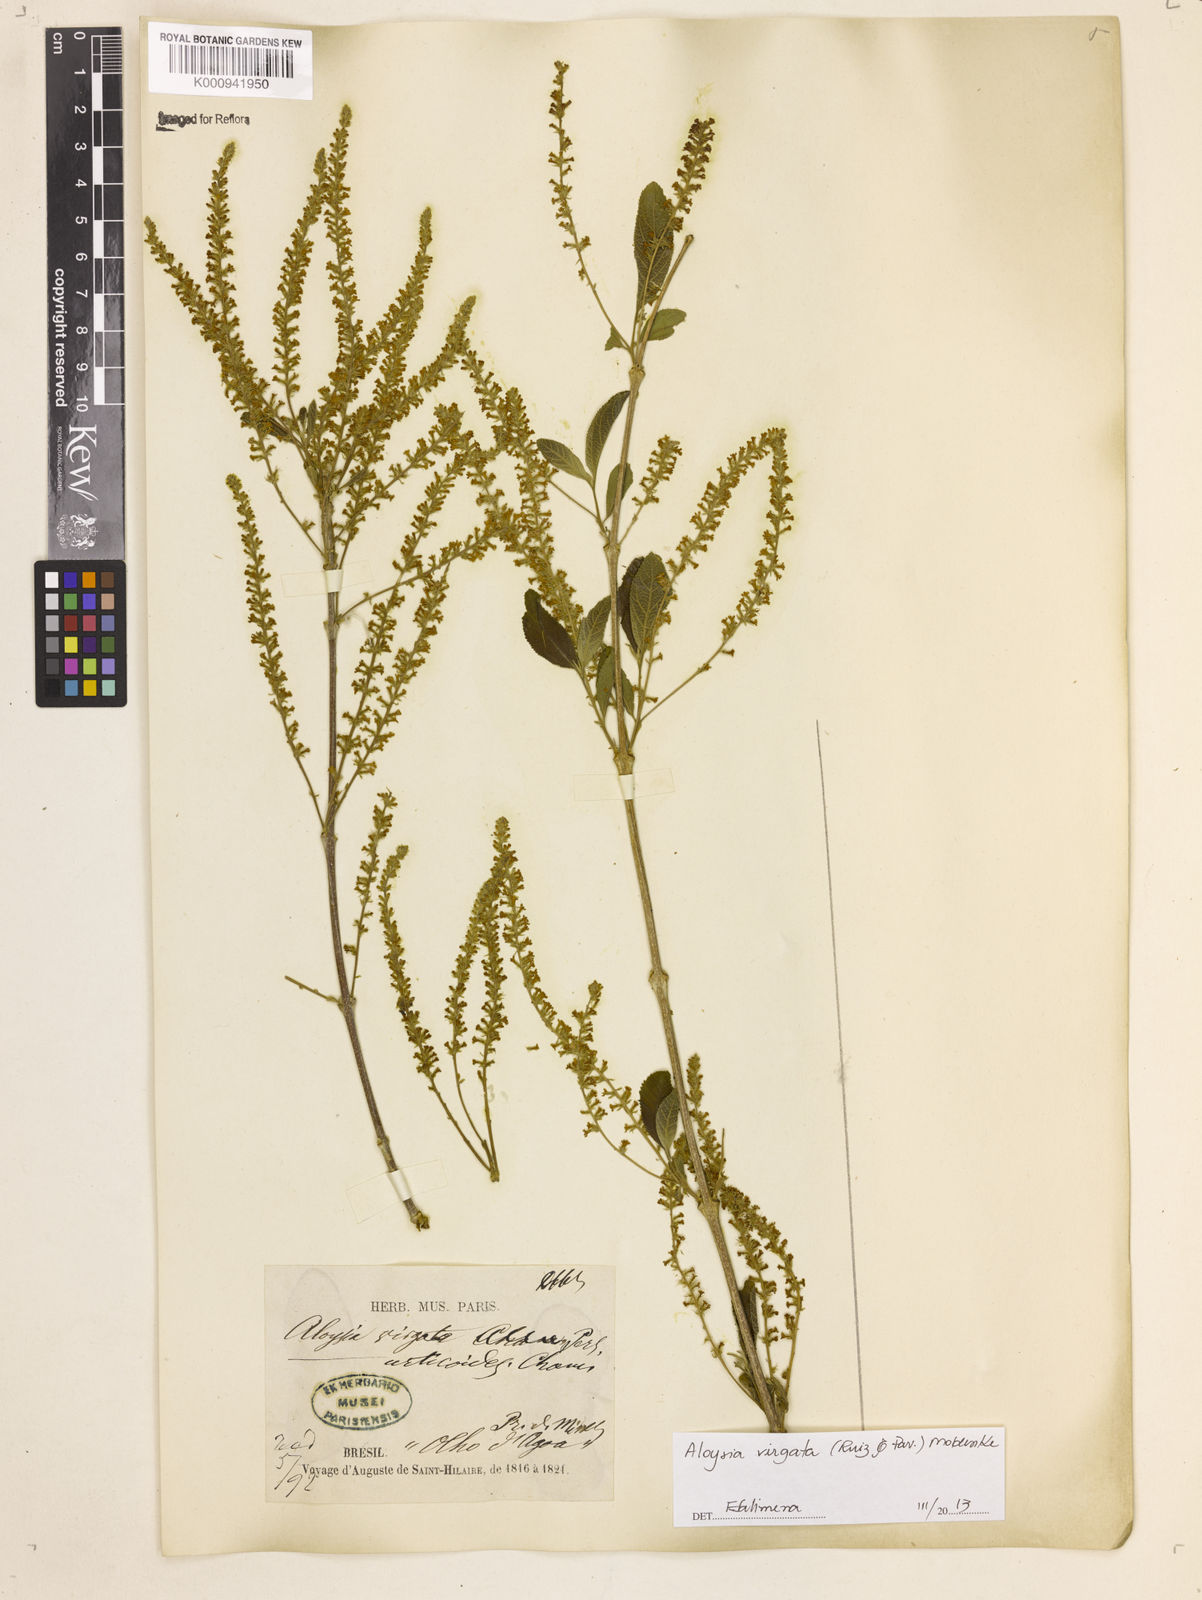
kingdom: Plantae
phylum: Tracheophyta
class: Magnoliopsida
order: Lamiales
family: Verbenaceae
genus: Aloysia
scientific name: Aloysia
